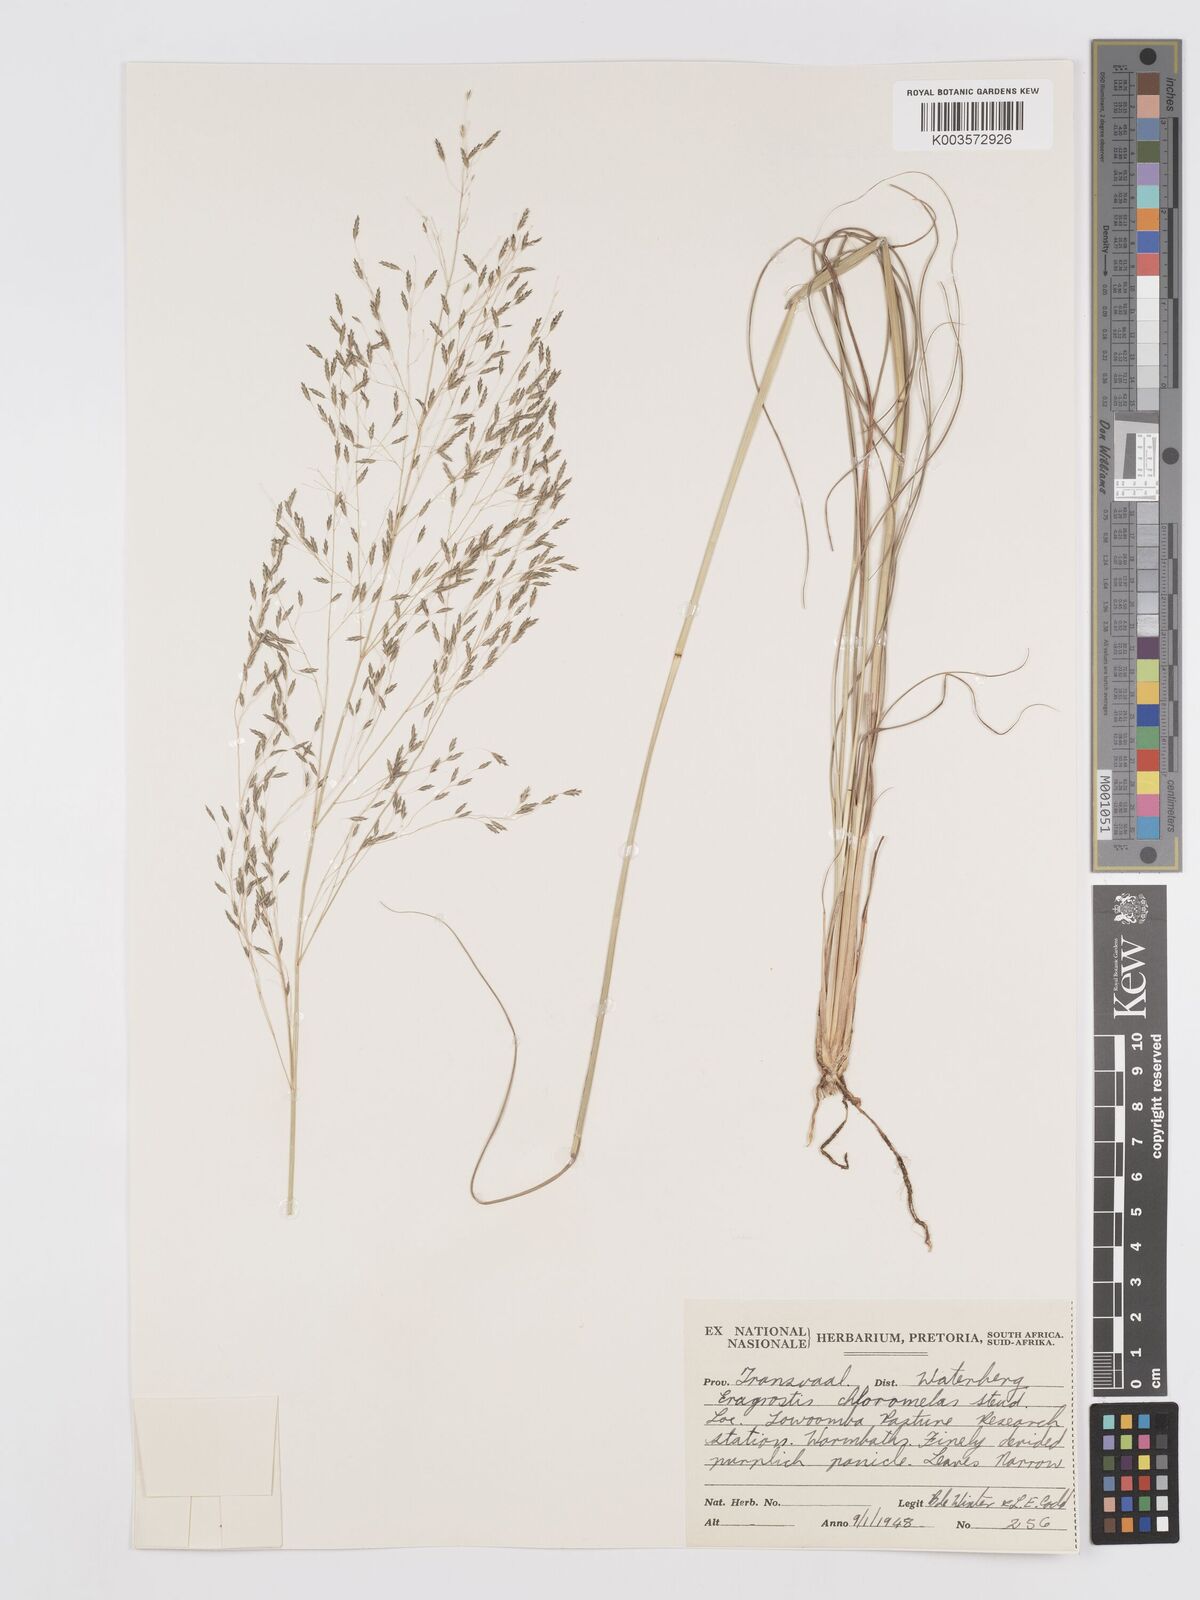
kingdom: Plantae
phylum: Tracheophyta
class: Liliopsida
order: Poales
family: Poaceae
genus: Eragrostis
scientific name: Eragrostis curvula
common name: African love-grass
